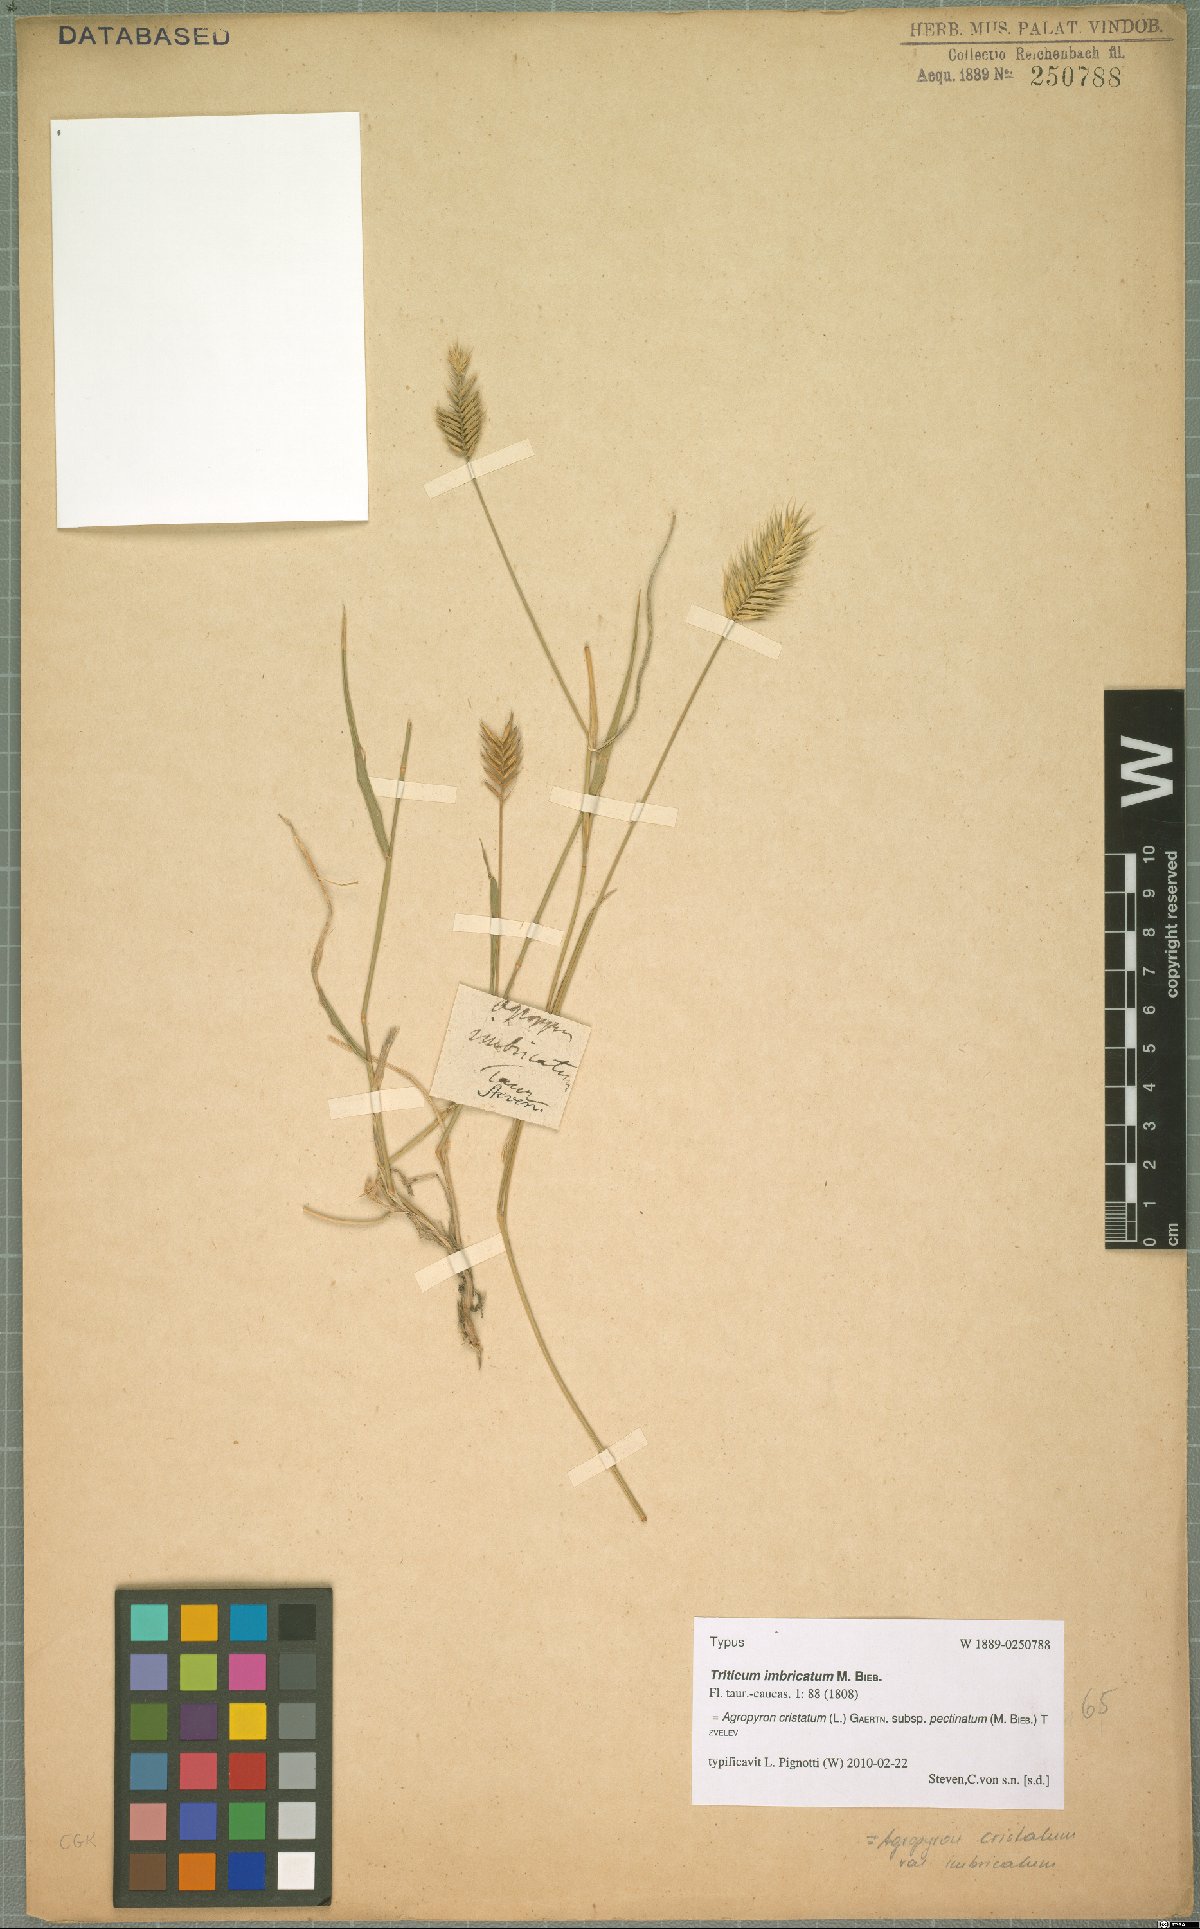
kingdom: Plantae
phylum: Tracheophyta
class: Liliopsida
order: Poales
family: Poaceae
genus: Agropyron
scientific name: Agropyron cristatum
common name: Crested wheatgrass
